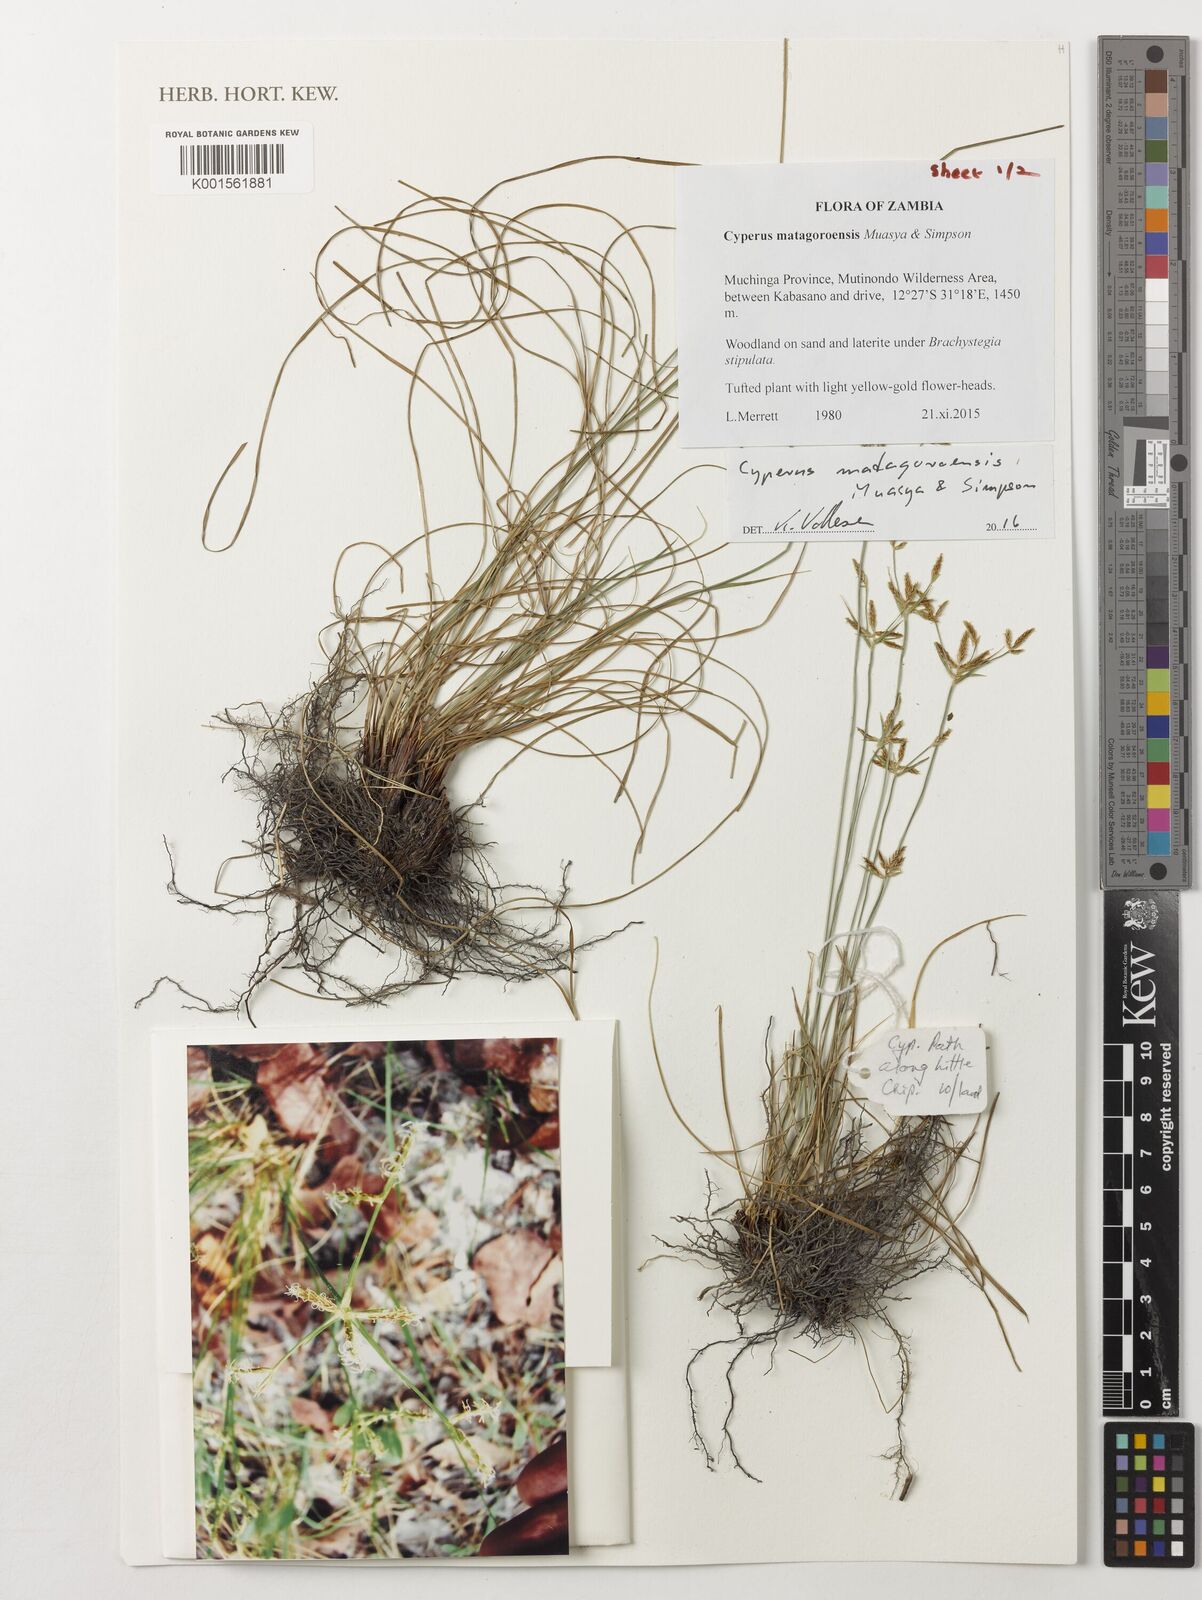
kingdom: Plantae
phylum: Tracheophyta
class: Liliopsida
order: Poales
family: Cyperaceae
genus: Cyperus
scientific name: Cyperus
